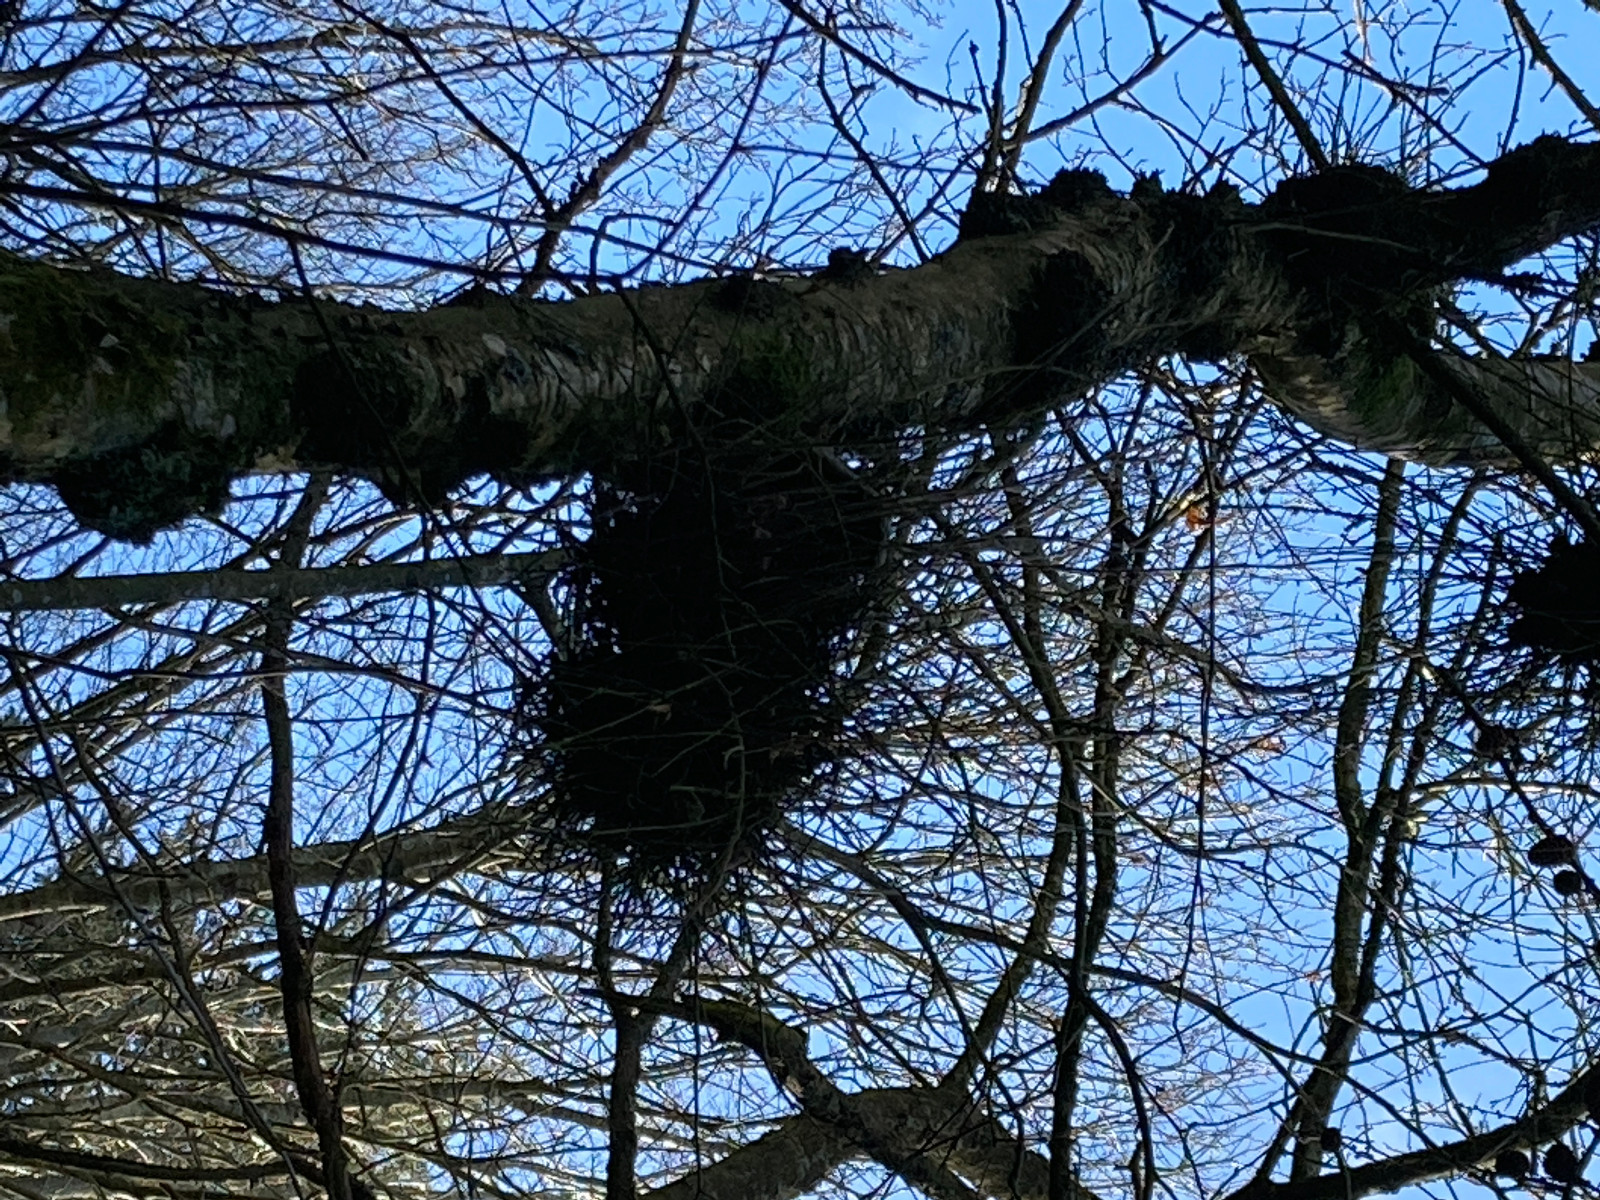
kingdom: Fungi
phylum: Ascomycota
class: Taphrinomycetes
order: Taphrinales
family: Taphrinaceae
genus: Taphrina
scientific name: Taphrina betulina
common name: hekse-sækdug
